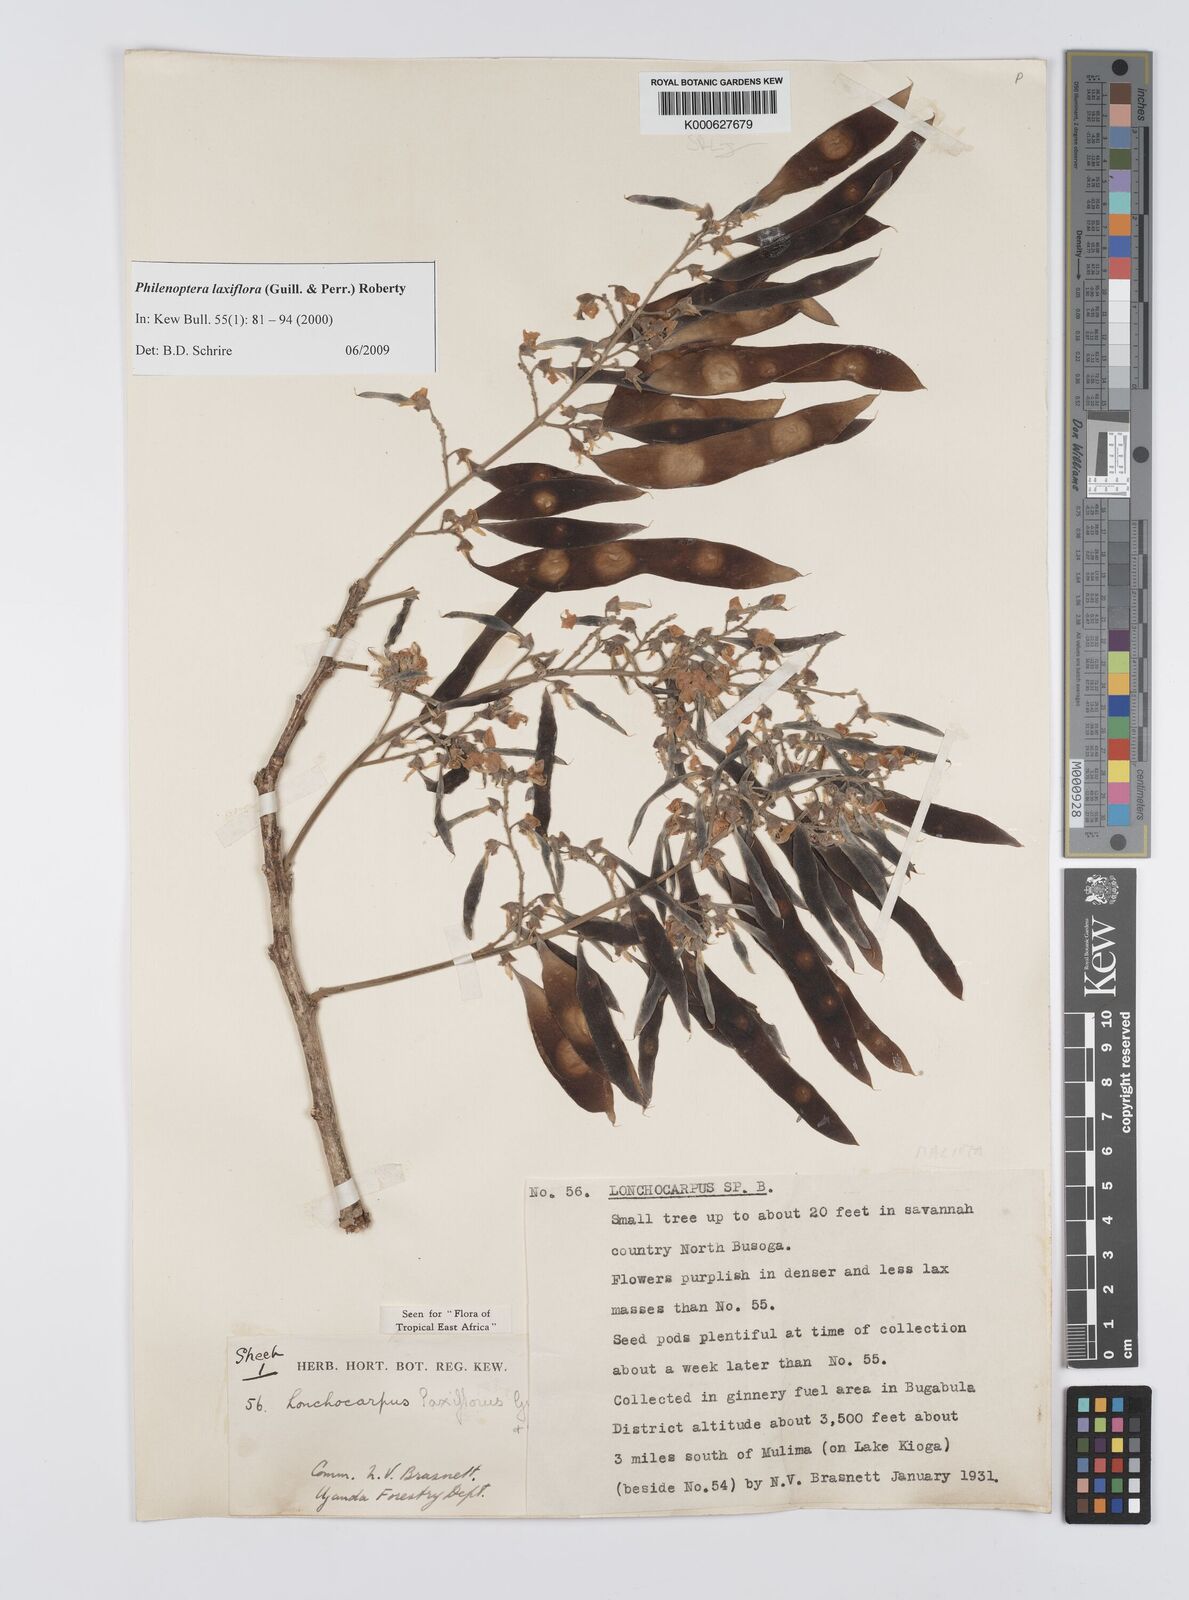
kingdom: Plantae
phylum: Tracheophyta
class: Magnoliopsida
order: Fabales
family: Fabaceae
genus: Philenoptera
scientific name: Philenoptera laxiflora
